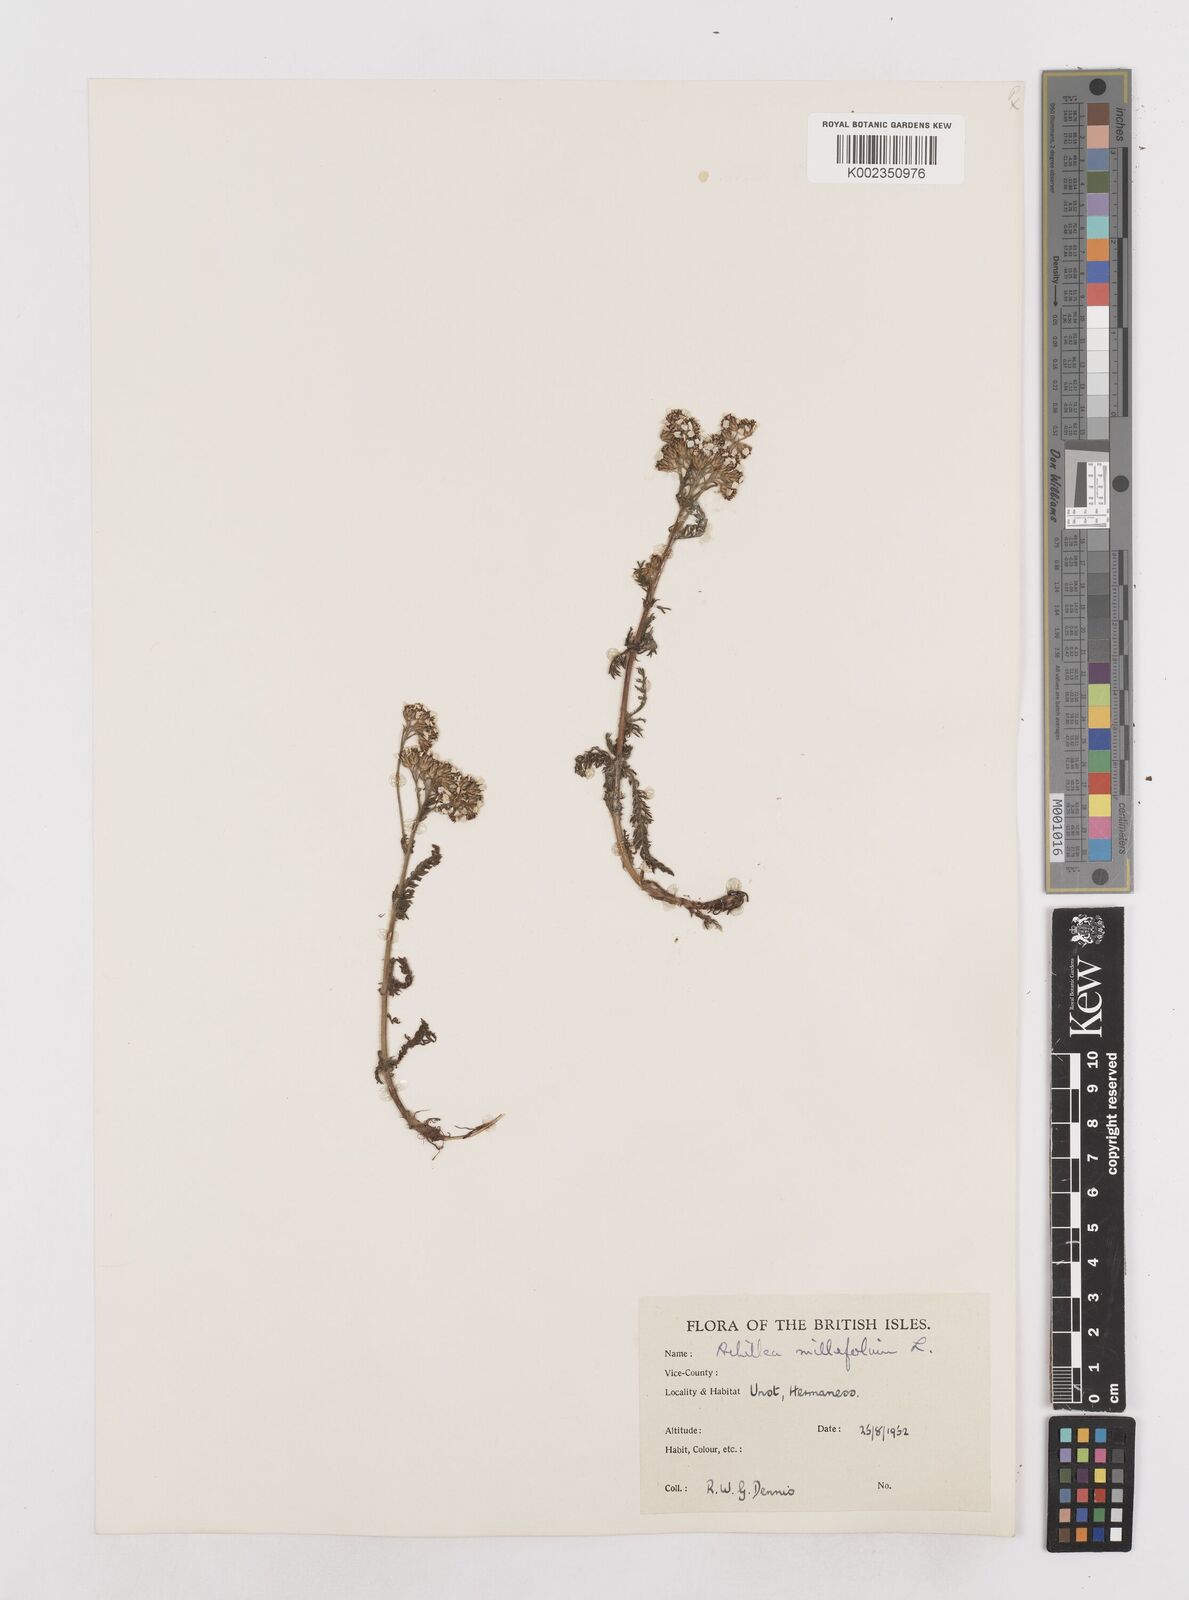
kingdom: Plantae
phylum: Tracheophyta
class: Magnoliopsida
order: Asterales
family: Asteraceae
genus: Achillea
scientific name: Achillea millefolium
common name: Yarrow
